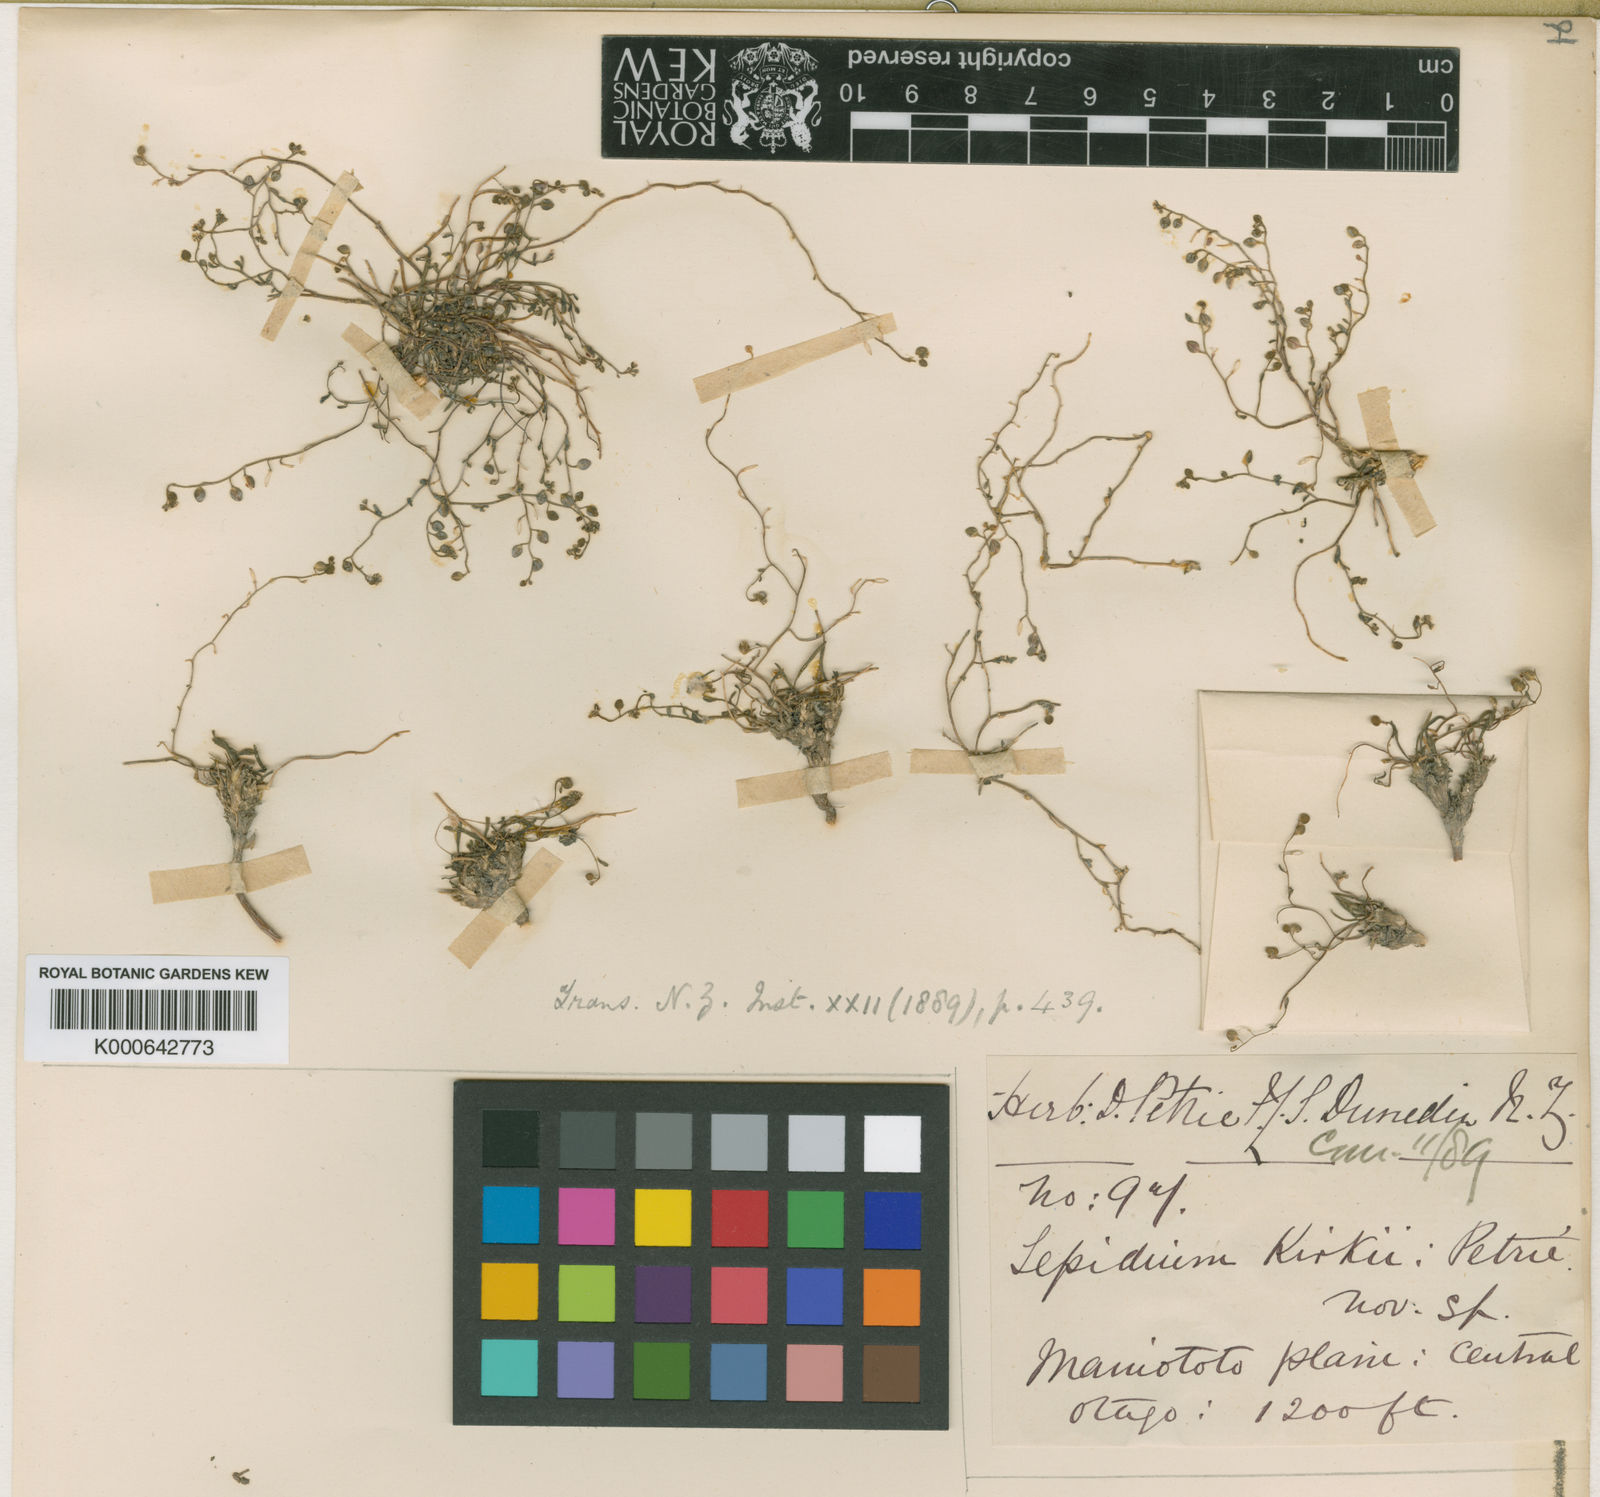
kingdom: Plantae
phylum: Tracheophyta
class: Magnoliopsida
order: Brassicales
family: Brassicaceae
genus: Lepidium
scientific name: Lepidium kirkii
